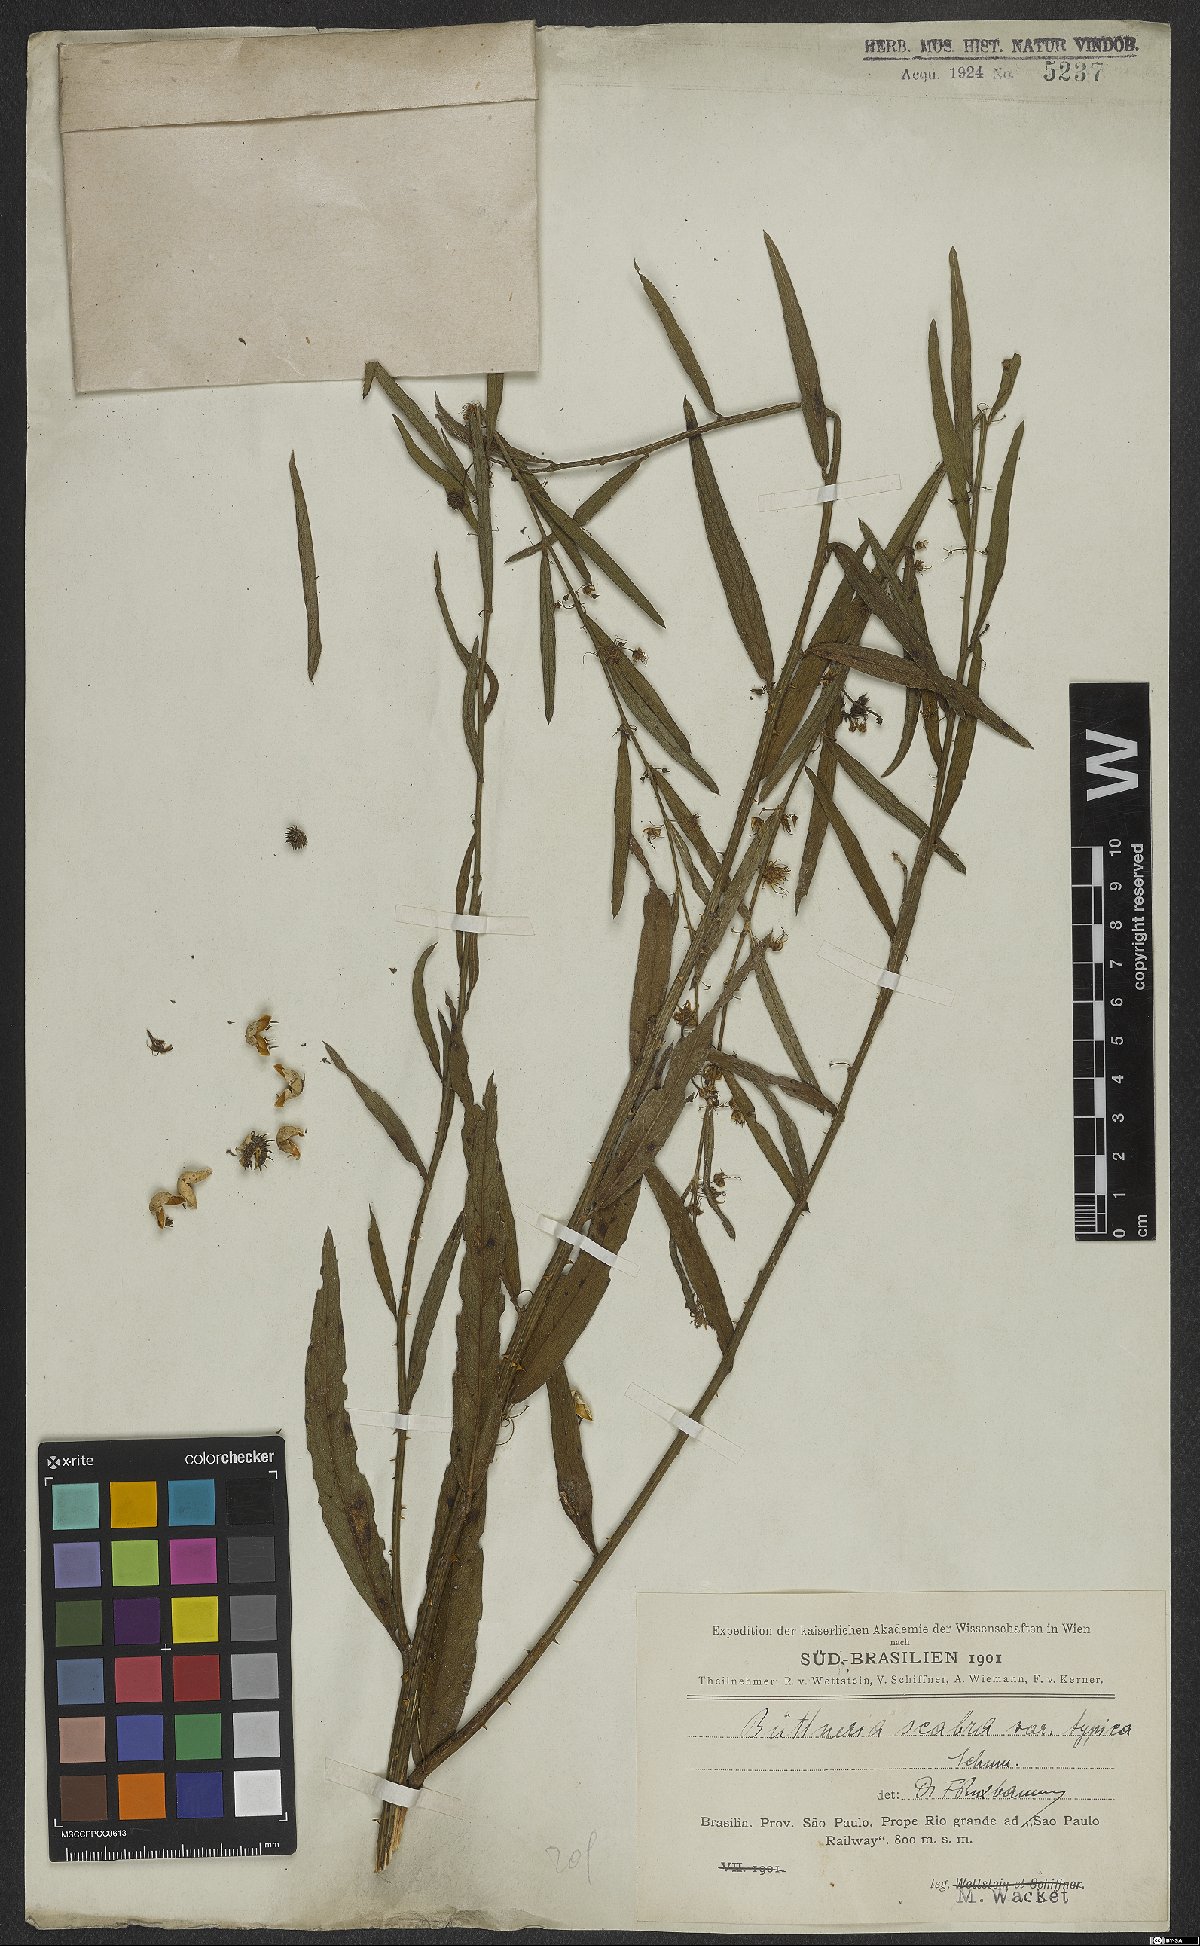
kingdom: Plantae
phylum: Tracheophyta
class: Magnoliopsida
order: Malvales
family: Malvaceae
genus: Byttneria
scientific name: Byttneria scabra
